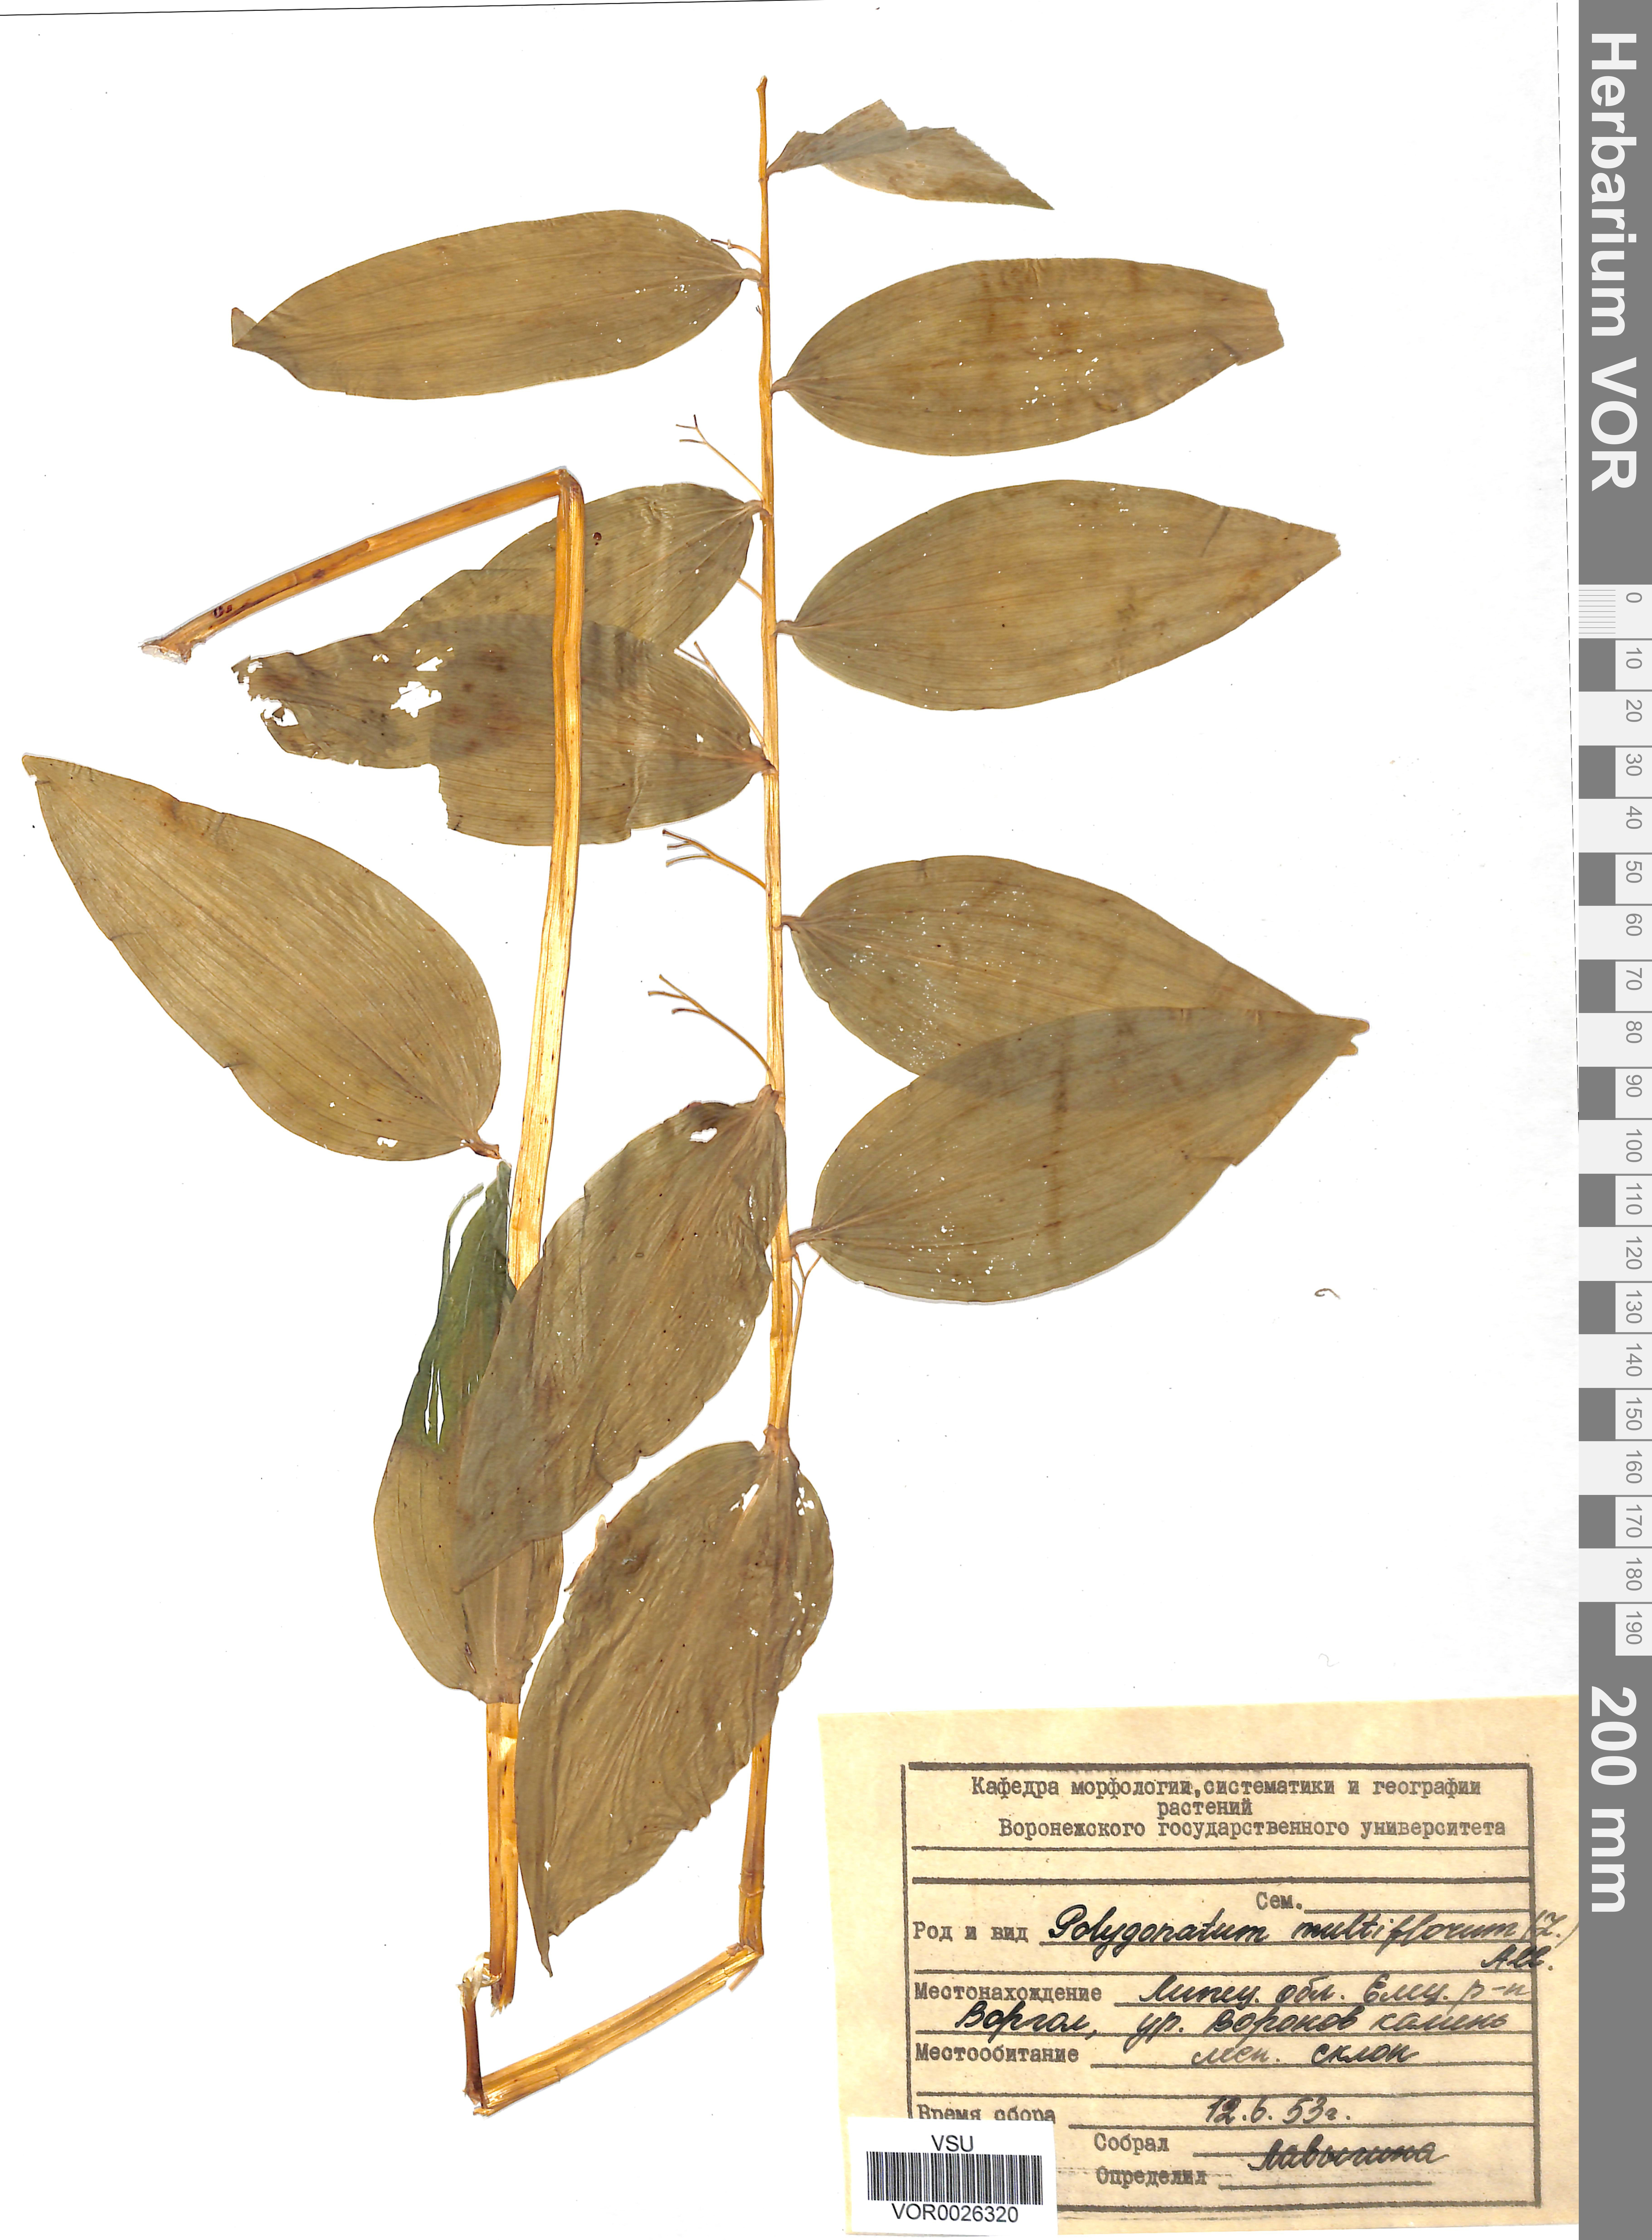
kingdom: Plantae
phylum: Tracheophyta
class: Liliopsida
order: Asparagales
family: Asparagaceae
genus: Polygonatum
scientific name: Polygonatum multiflorum
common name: Solomon's-seal
